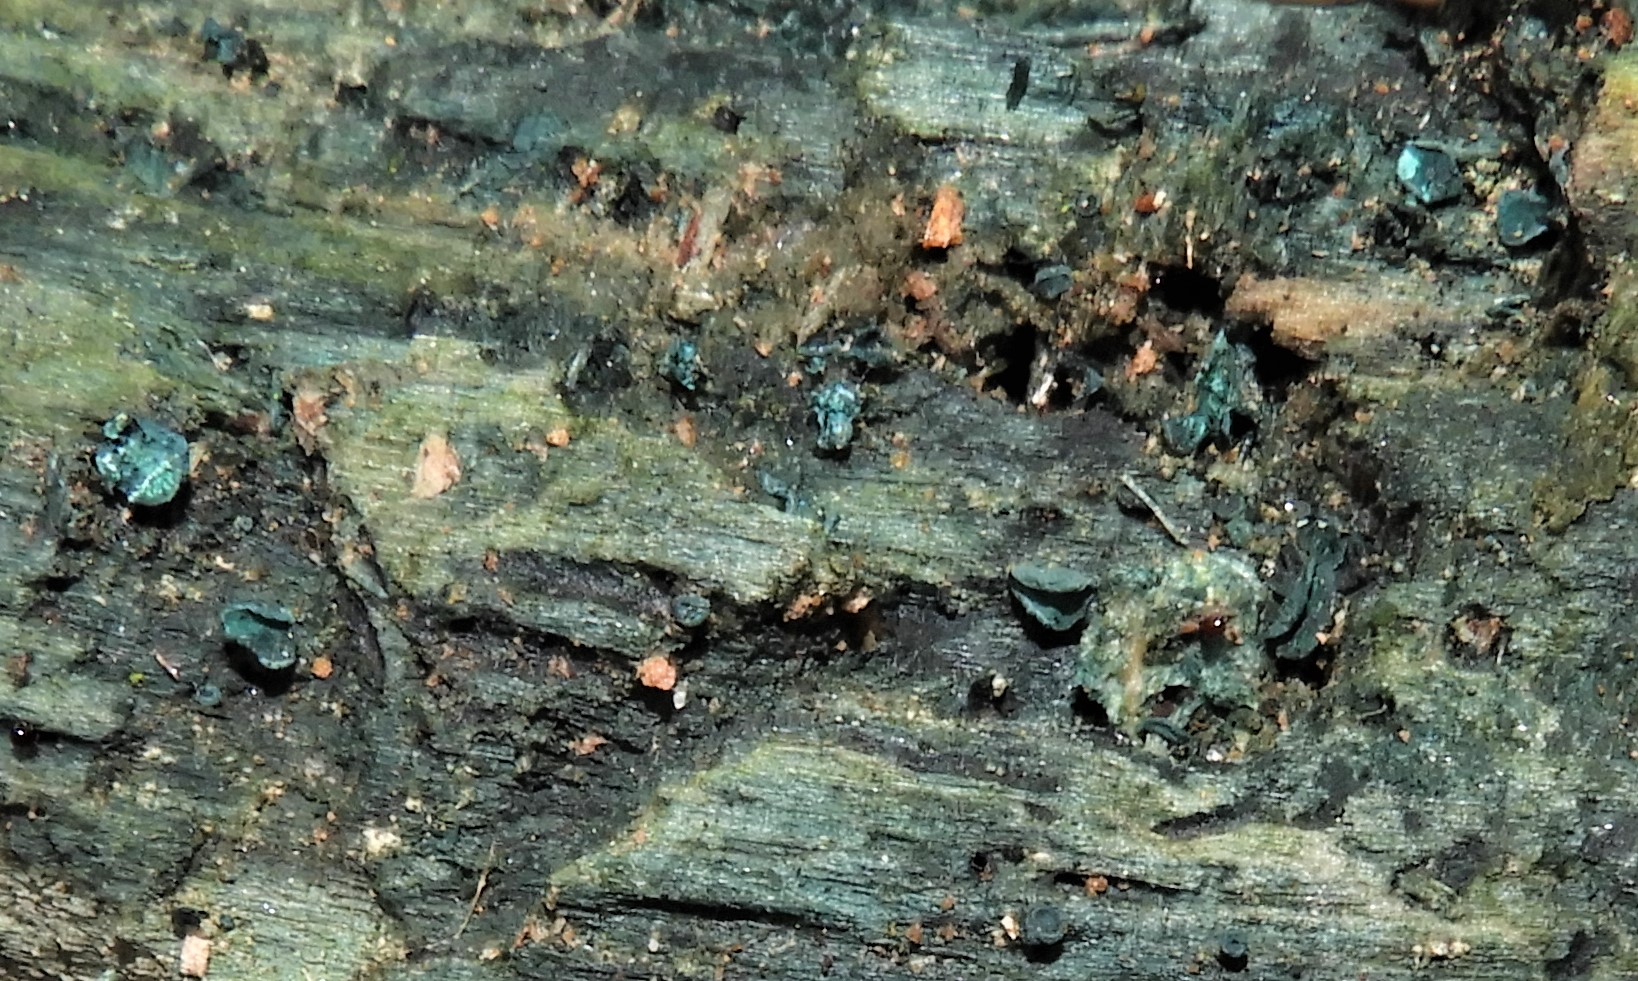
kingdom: Fungi
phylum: Ascomycota
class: Leotiomycetes
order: Helotiales
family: Chlorociboriaceae
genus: Chlorociboria
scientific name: Chlorociboria aeruginascens
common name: almindelig grønskive
